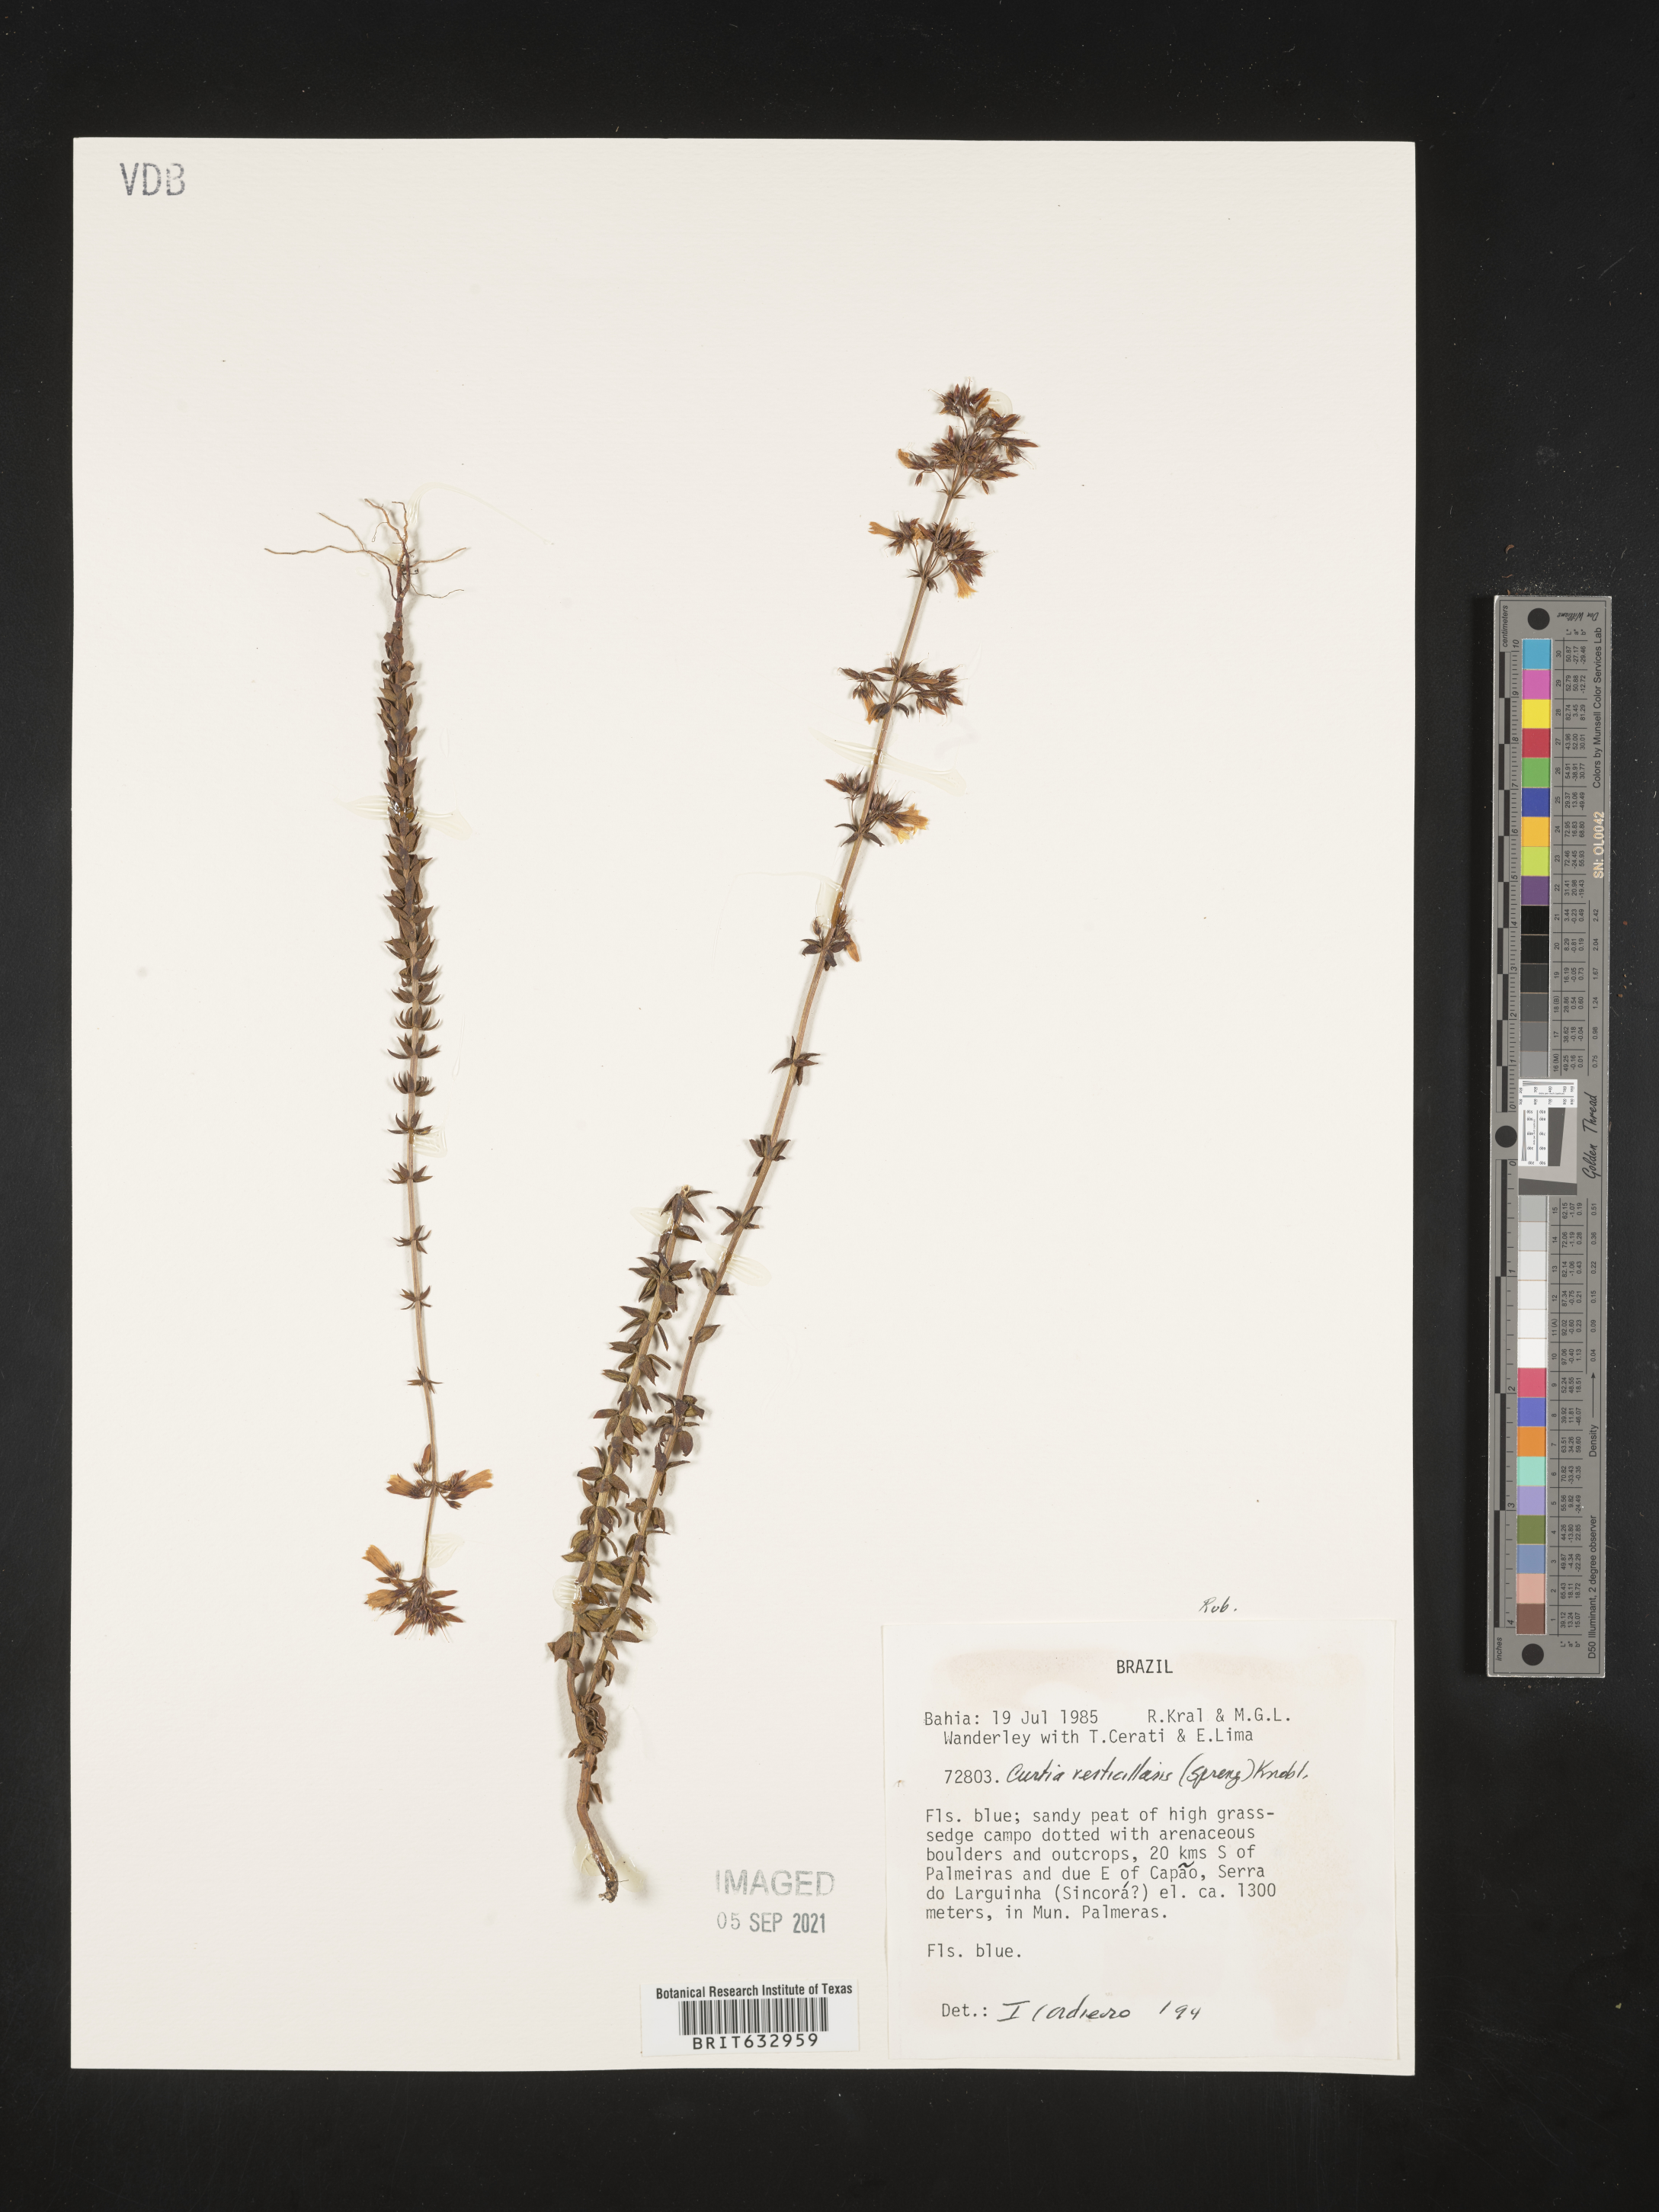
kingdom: Plantae
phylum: Tracheophyta
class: Magnoliopsida
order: Gentianales
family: Gentianaceae
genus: Curtia
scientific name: Curtia
